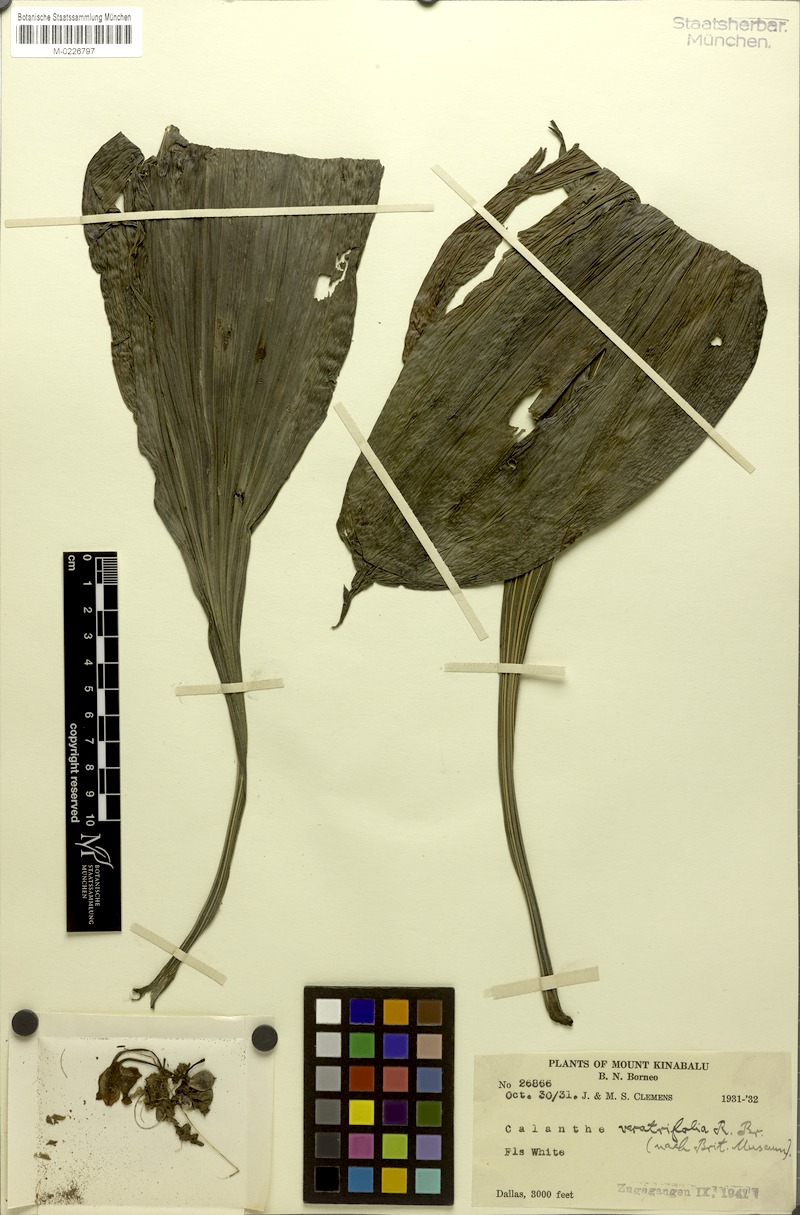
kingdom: Plantae
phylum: Tracheophyta
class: Liliopsida
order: Asparagales
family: Orchidaceae
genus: Calanthe
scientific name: Calanthe triplicata
